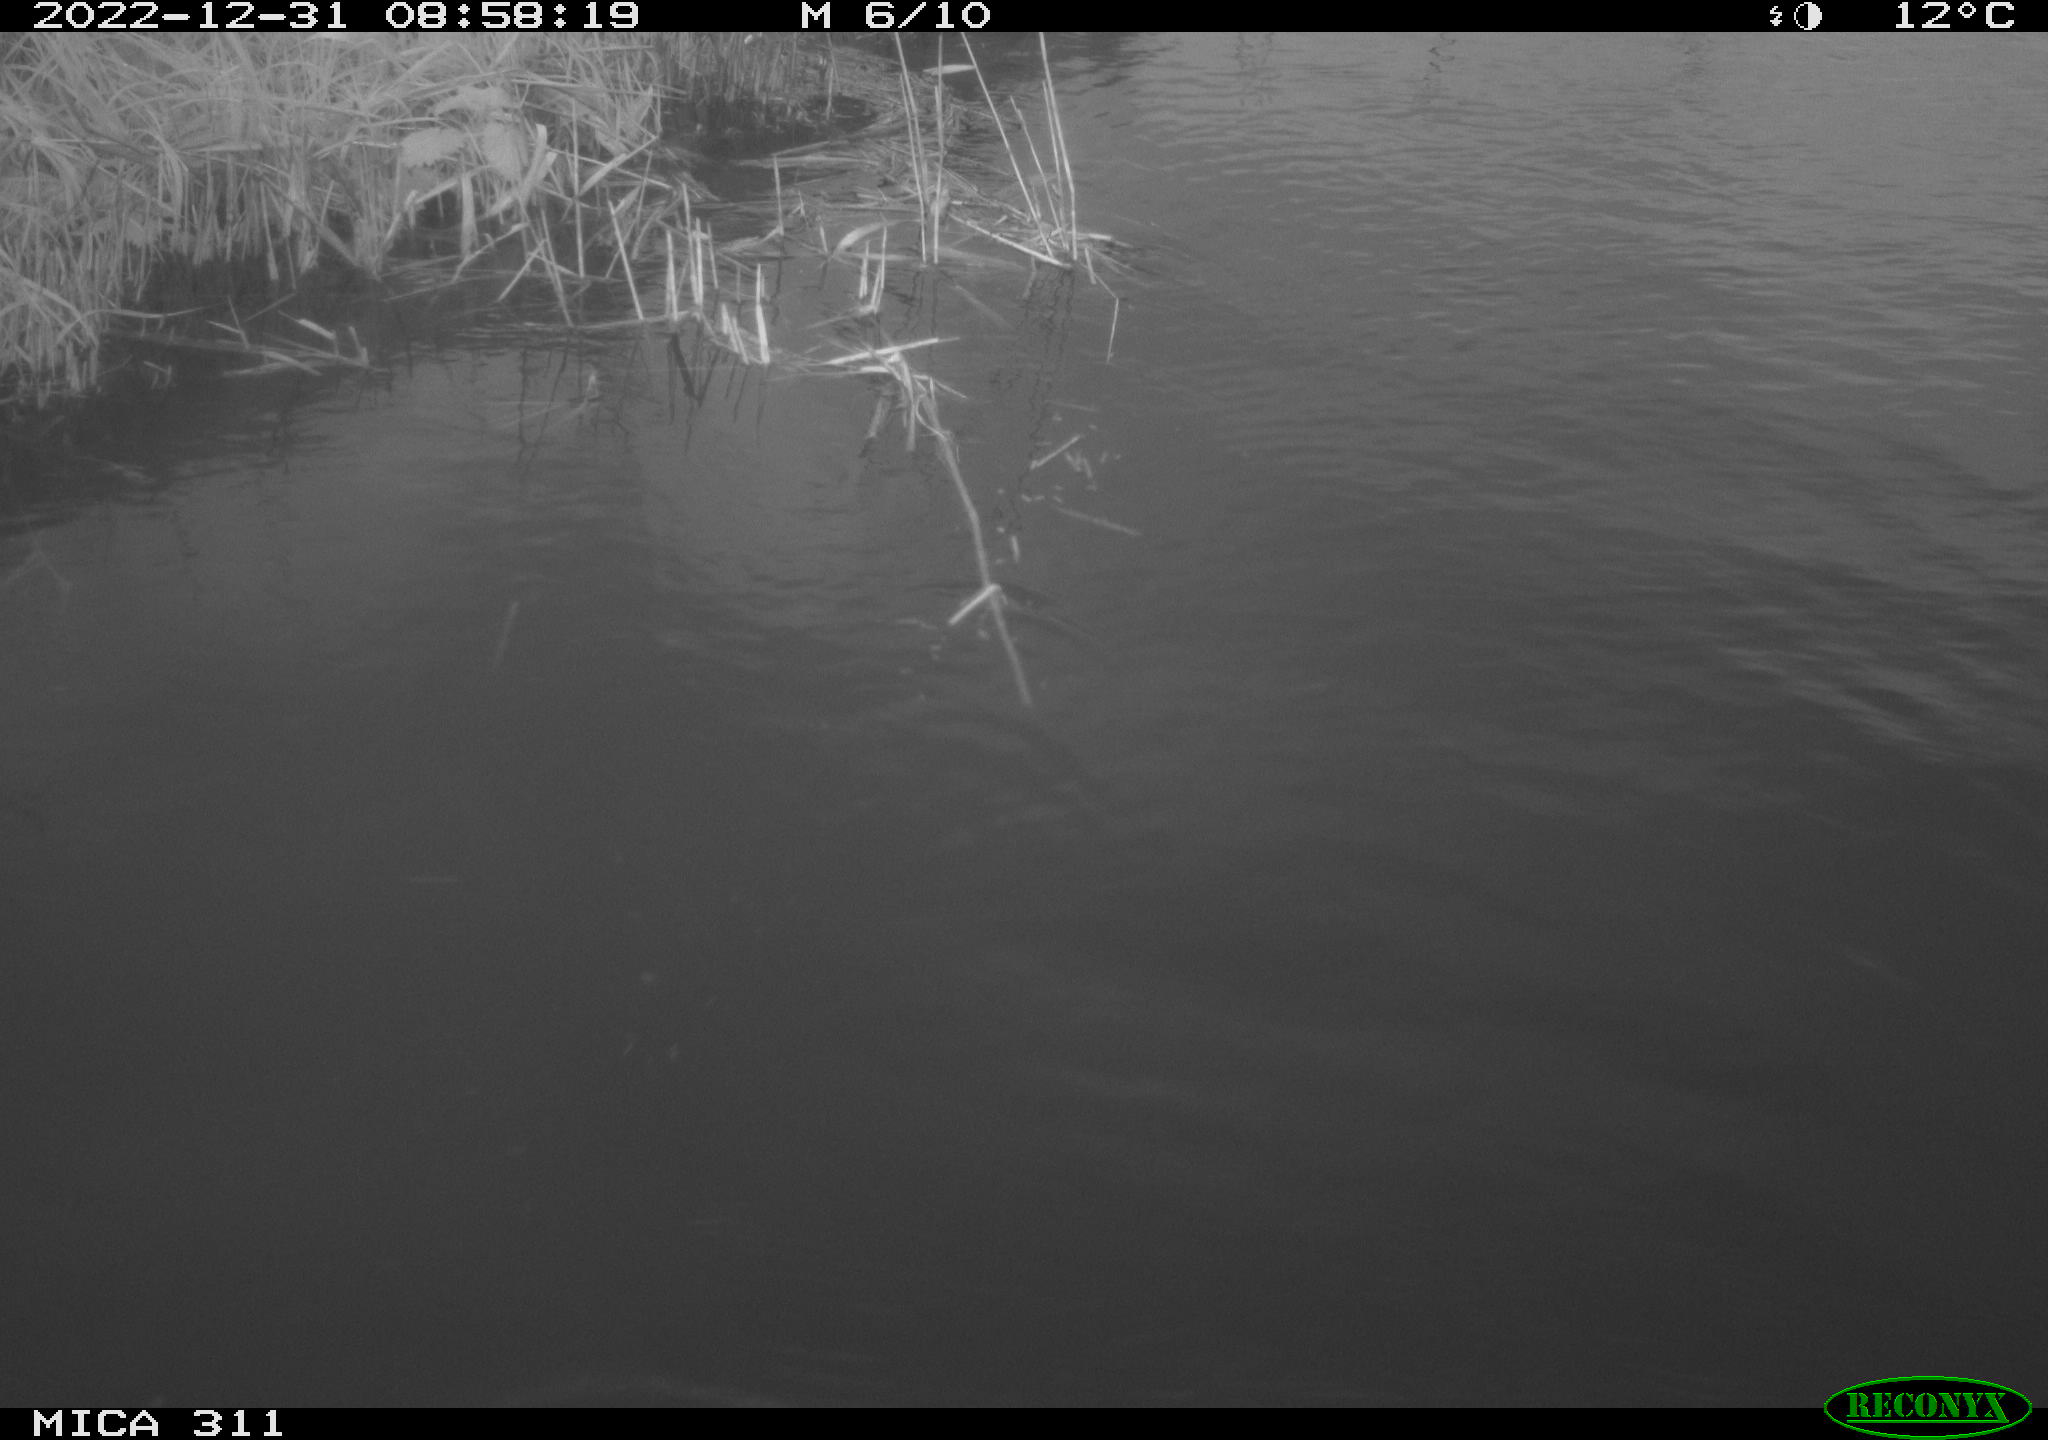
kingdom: Animalia
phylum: Chordata
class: Aves
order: Gruiformes
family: Rallidae
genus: Gallinula
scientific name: Gallinula chloropus
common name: Common moorhen
